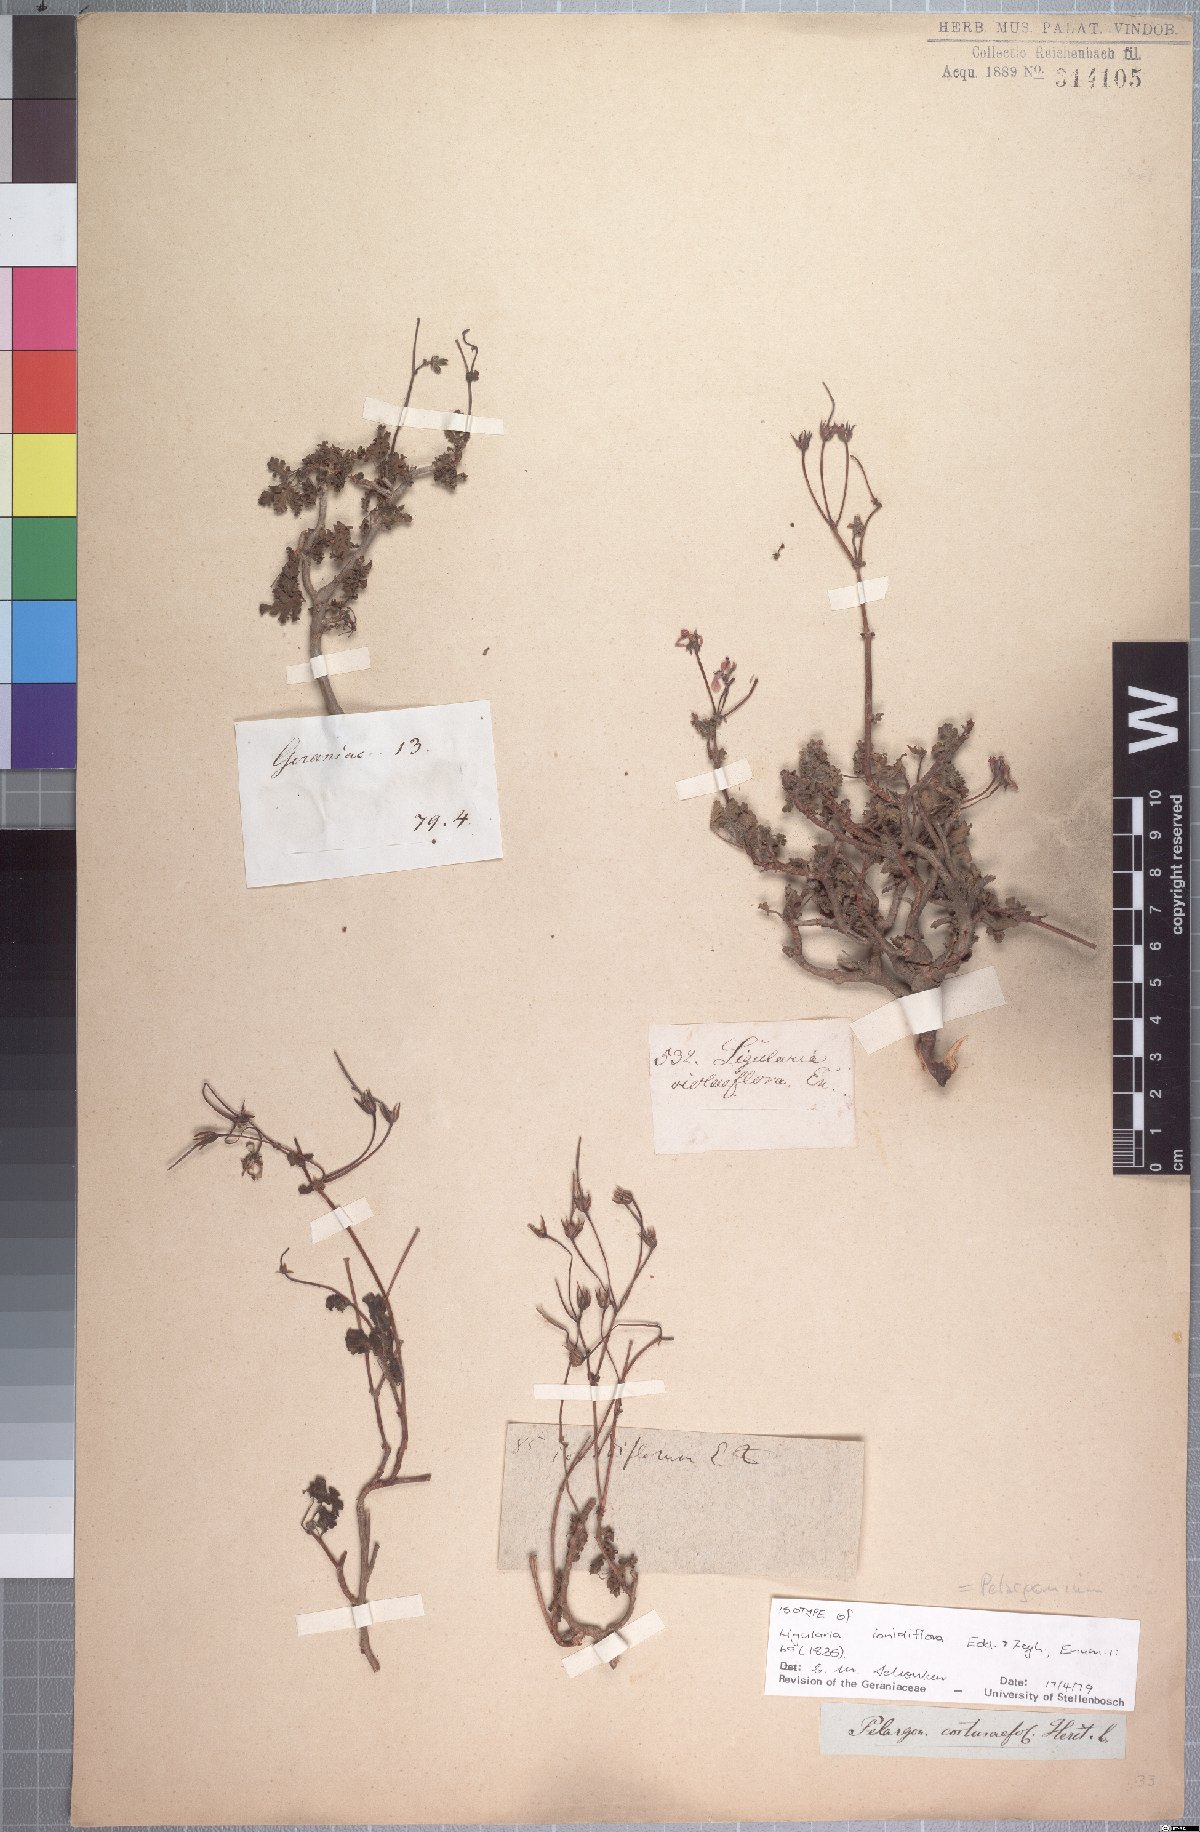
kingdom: Plantae
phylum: Tracheophyta
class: Magnoliopsida
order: Geraniales
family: Geraniaceae
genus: Pelargonium
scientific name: Pelargonium ionidiflorum
